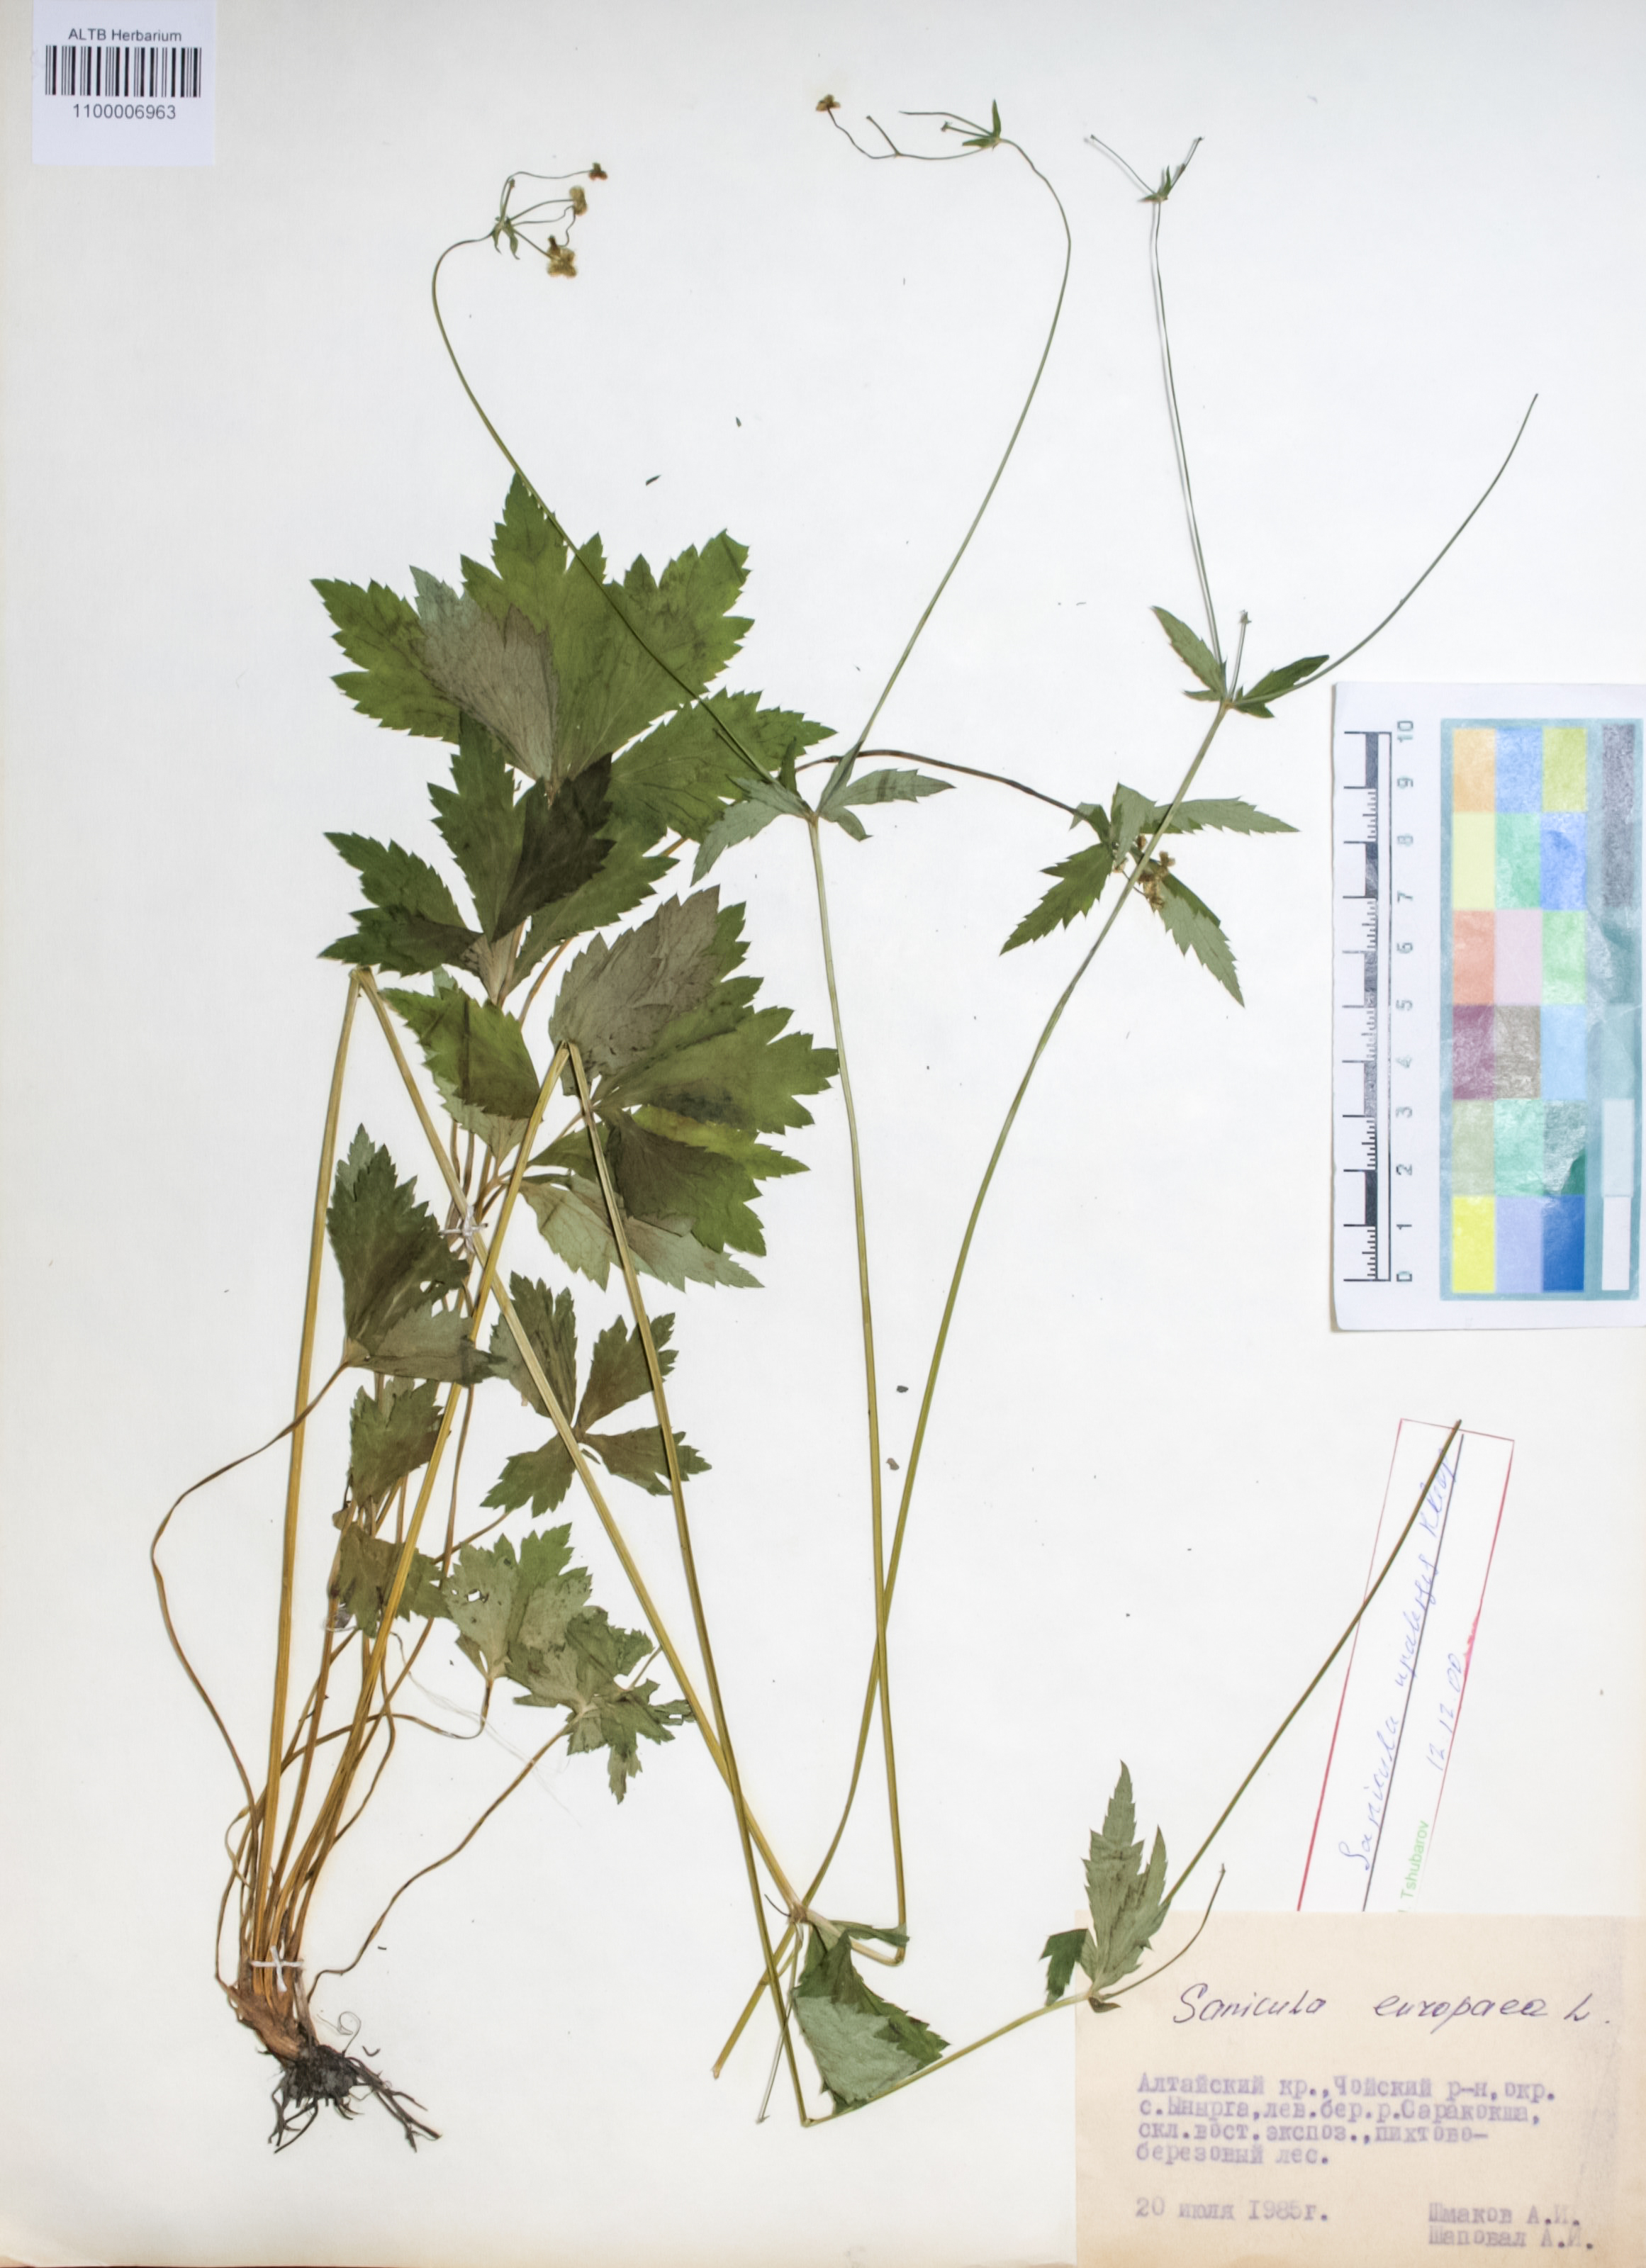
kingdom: Plantae
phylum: Tracheophyta
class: Magnoliopsida
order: Apiales
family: Apiaceae
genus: Sanicula
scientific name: Sanicula europaea
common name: Sanicle
